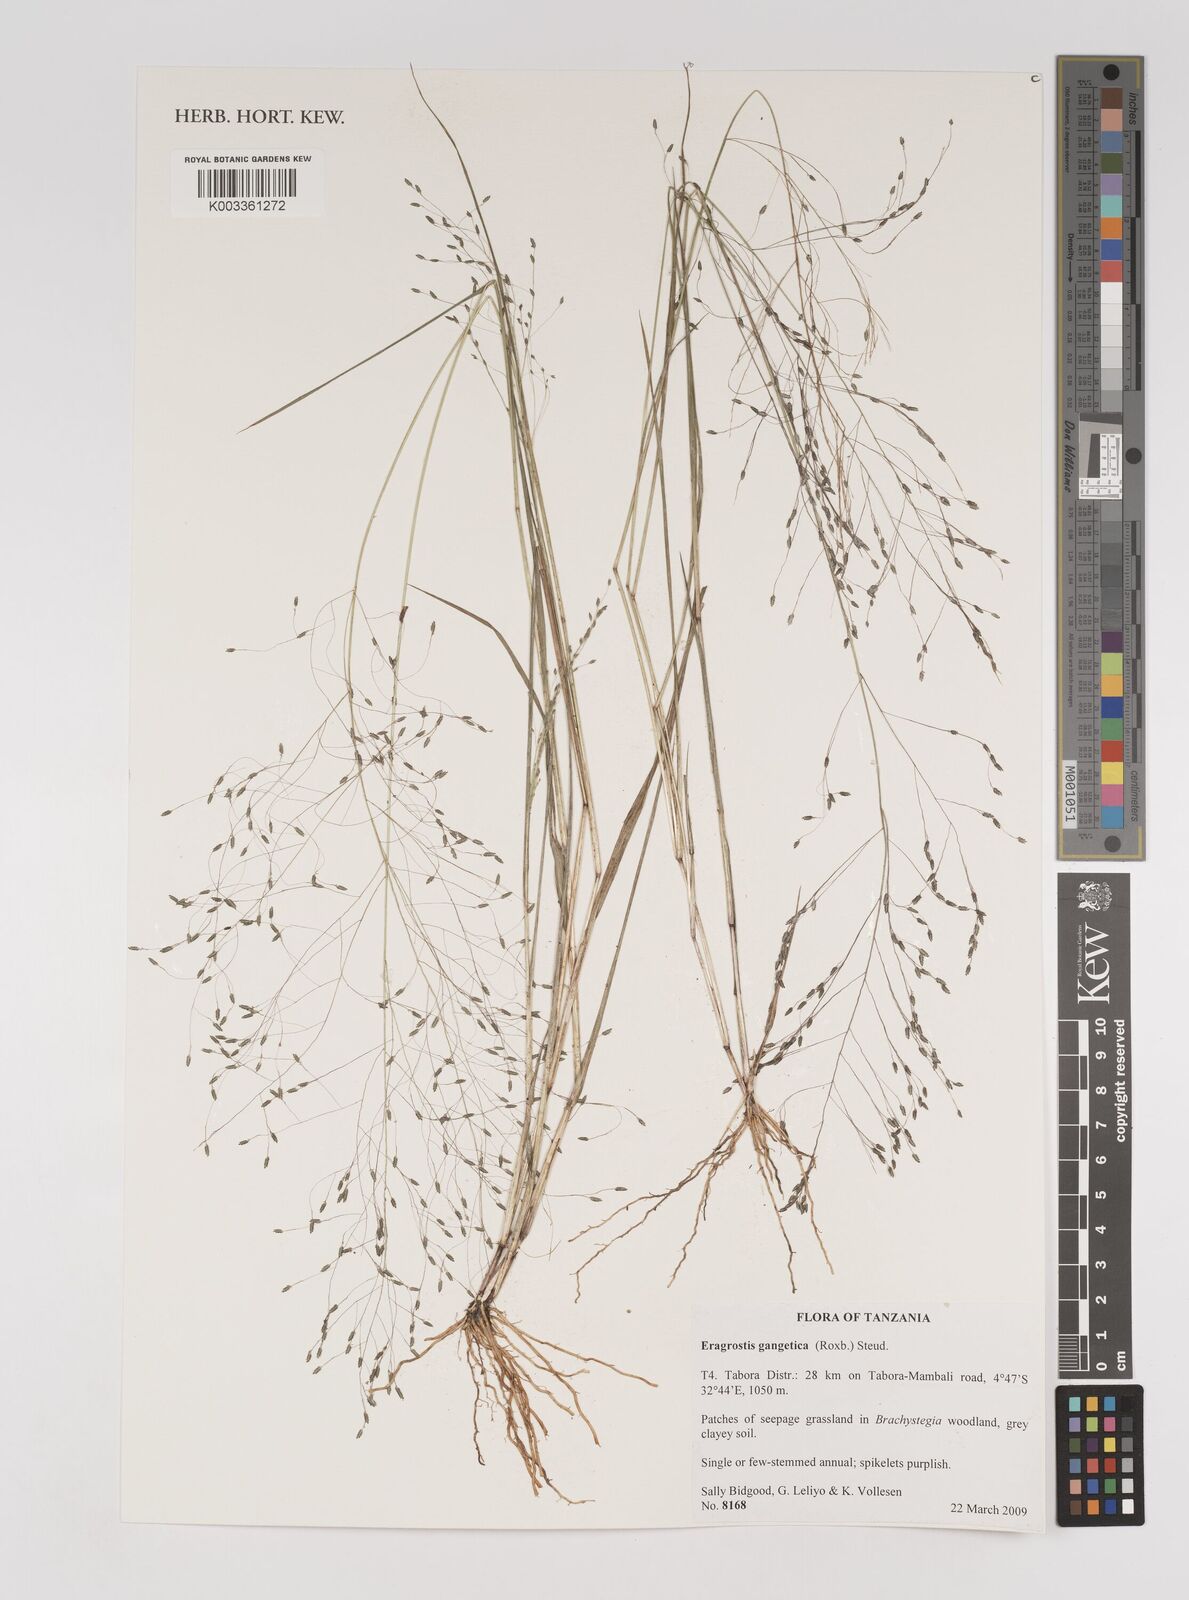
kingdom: Plantae
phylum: Tracheophyta
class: Liliopsida
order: Poales
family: Poaceae
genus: Eragrostis
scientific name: Eragrostis gangetica
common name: Slimflower lovegrass
